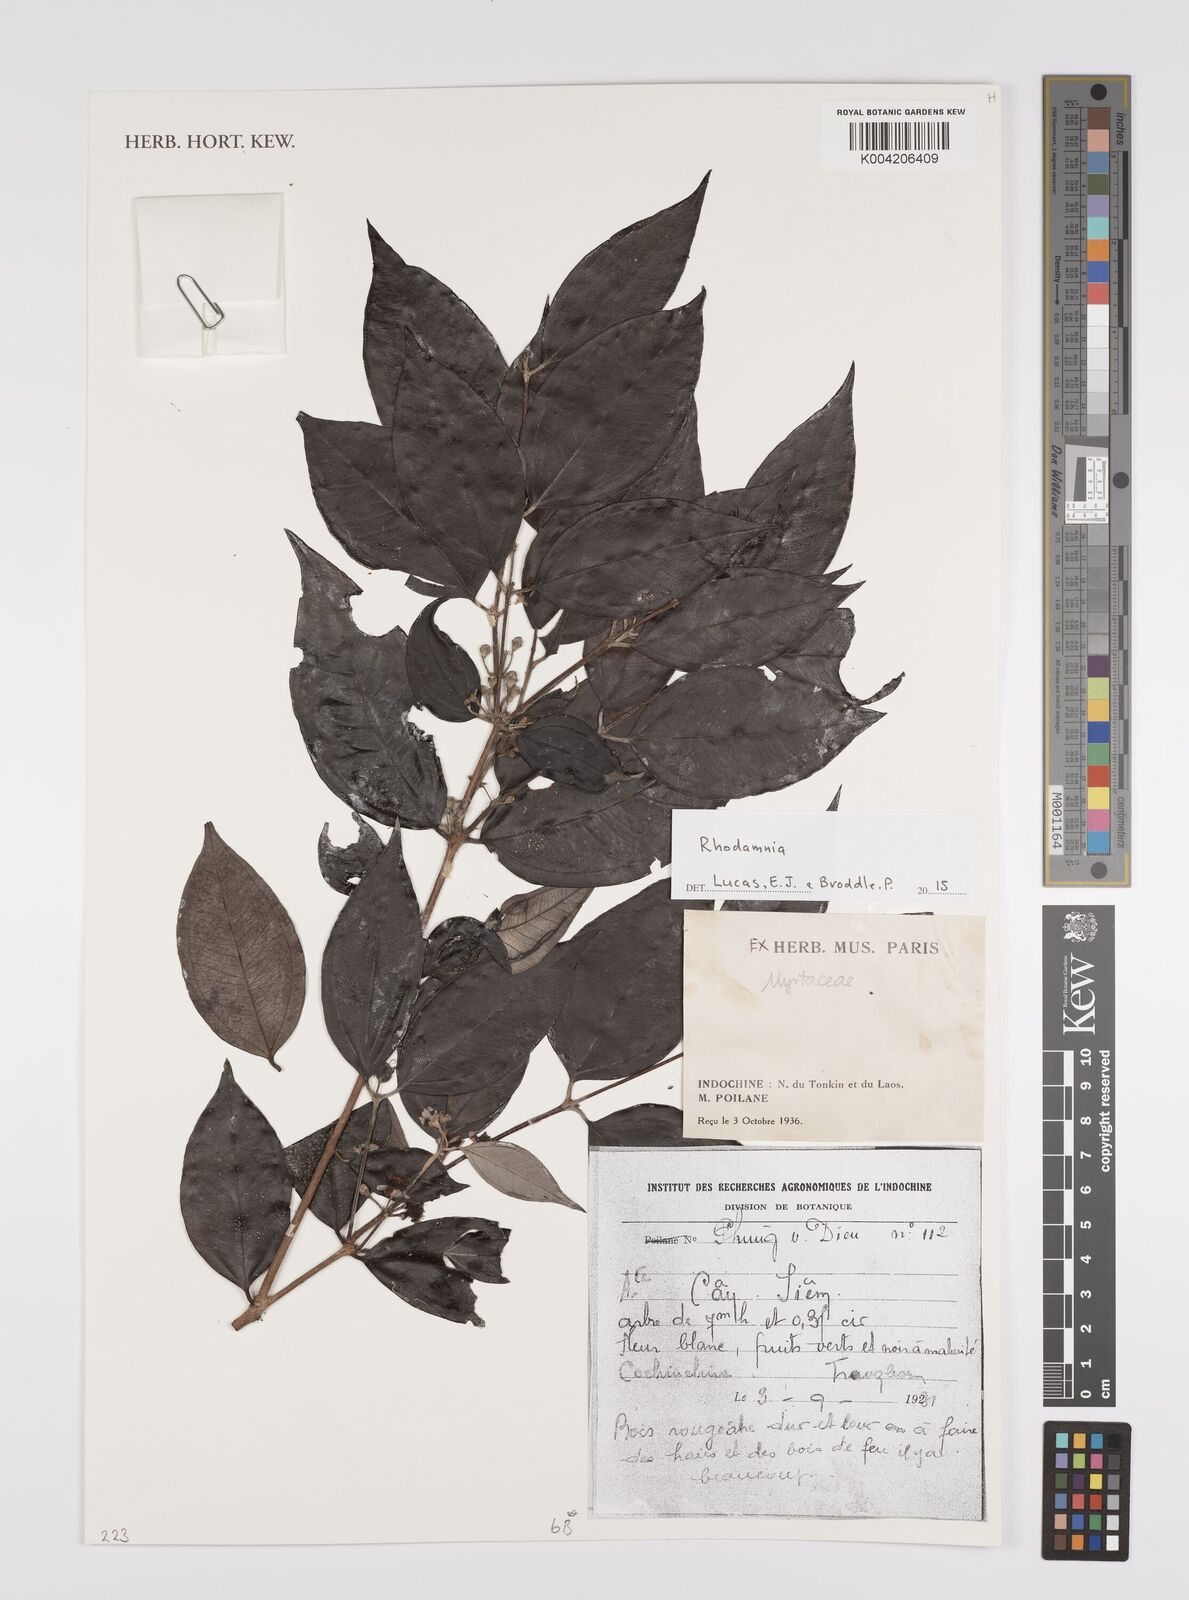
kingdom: Plantae
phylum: Tracheophyta
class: Magnoliopsida
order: Myrtales
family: Myrtaceae
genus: Rhodamnia
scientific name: Rhodamnia
